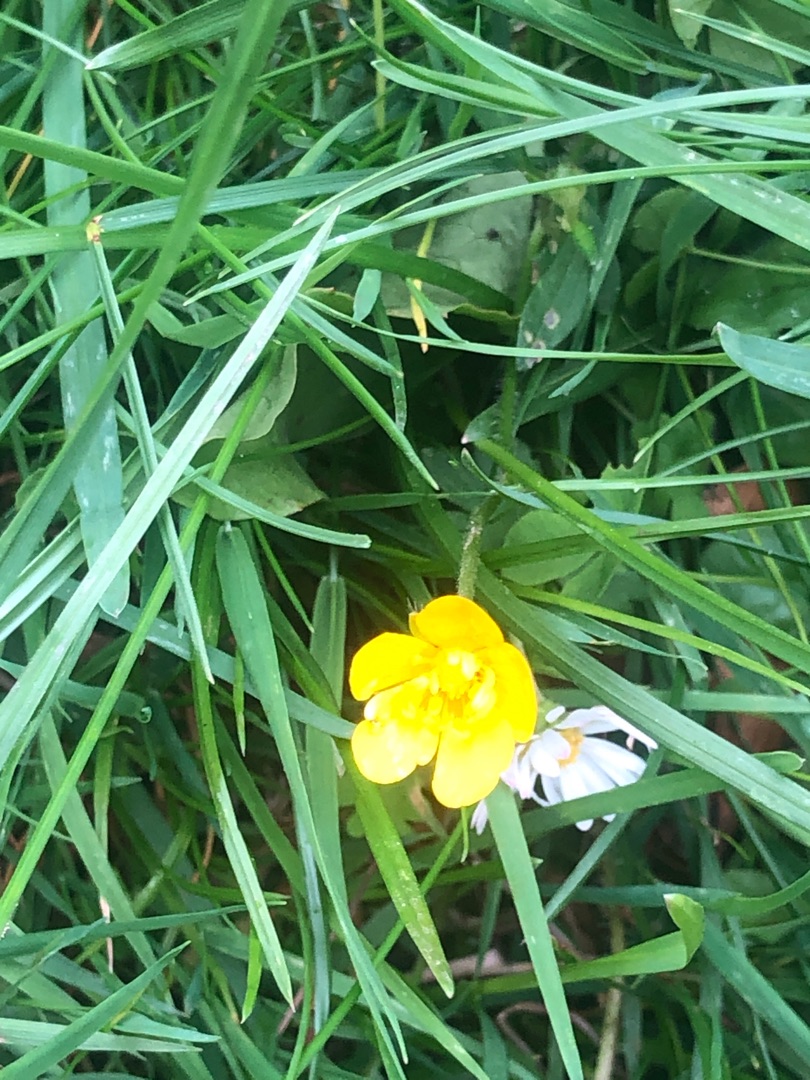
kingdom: Plantae
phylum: Tracheophyta
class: Magnoliopsida
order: Asterales
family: Asteraceae
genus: Hypochaeris
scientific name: Hypochaeris radicata
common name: Almindelig kongepen
